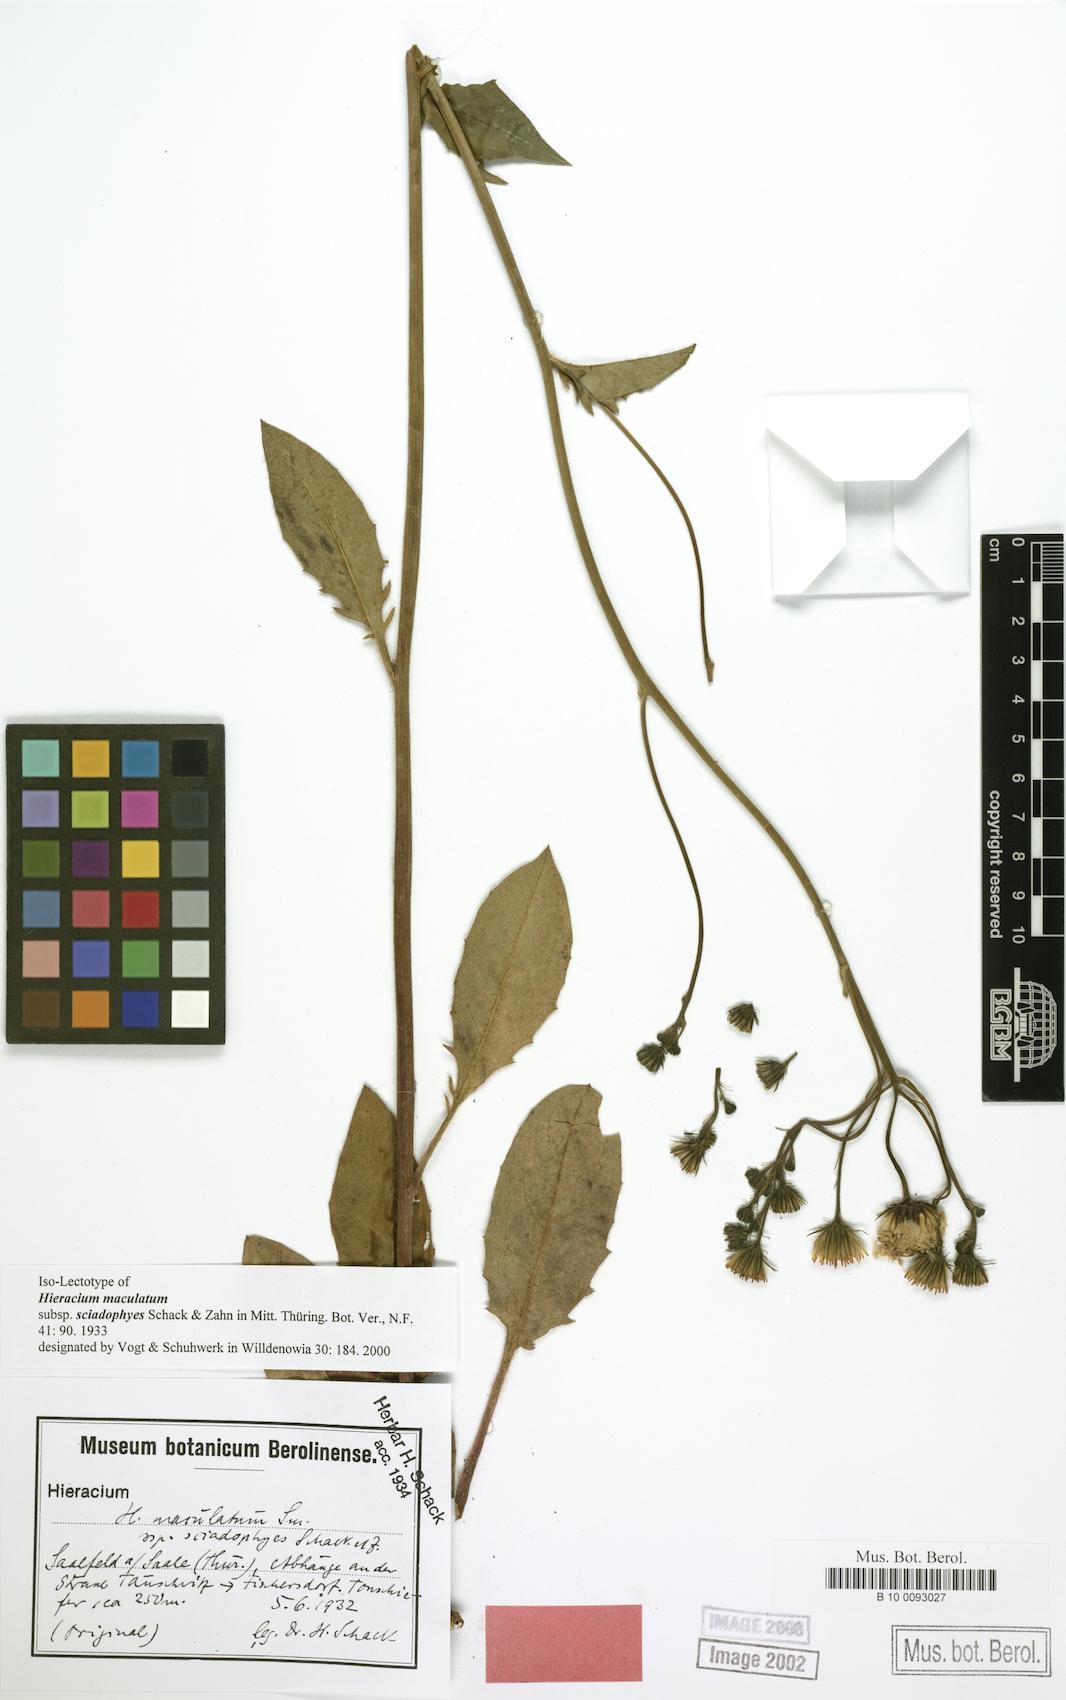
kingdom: Plantae
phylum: Tracheophyta
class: Magnoliopsida
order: Asterales
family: Asteraceae
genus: Hieracium
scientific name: Hieracium maculatum
